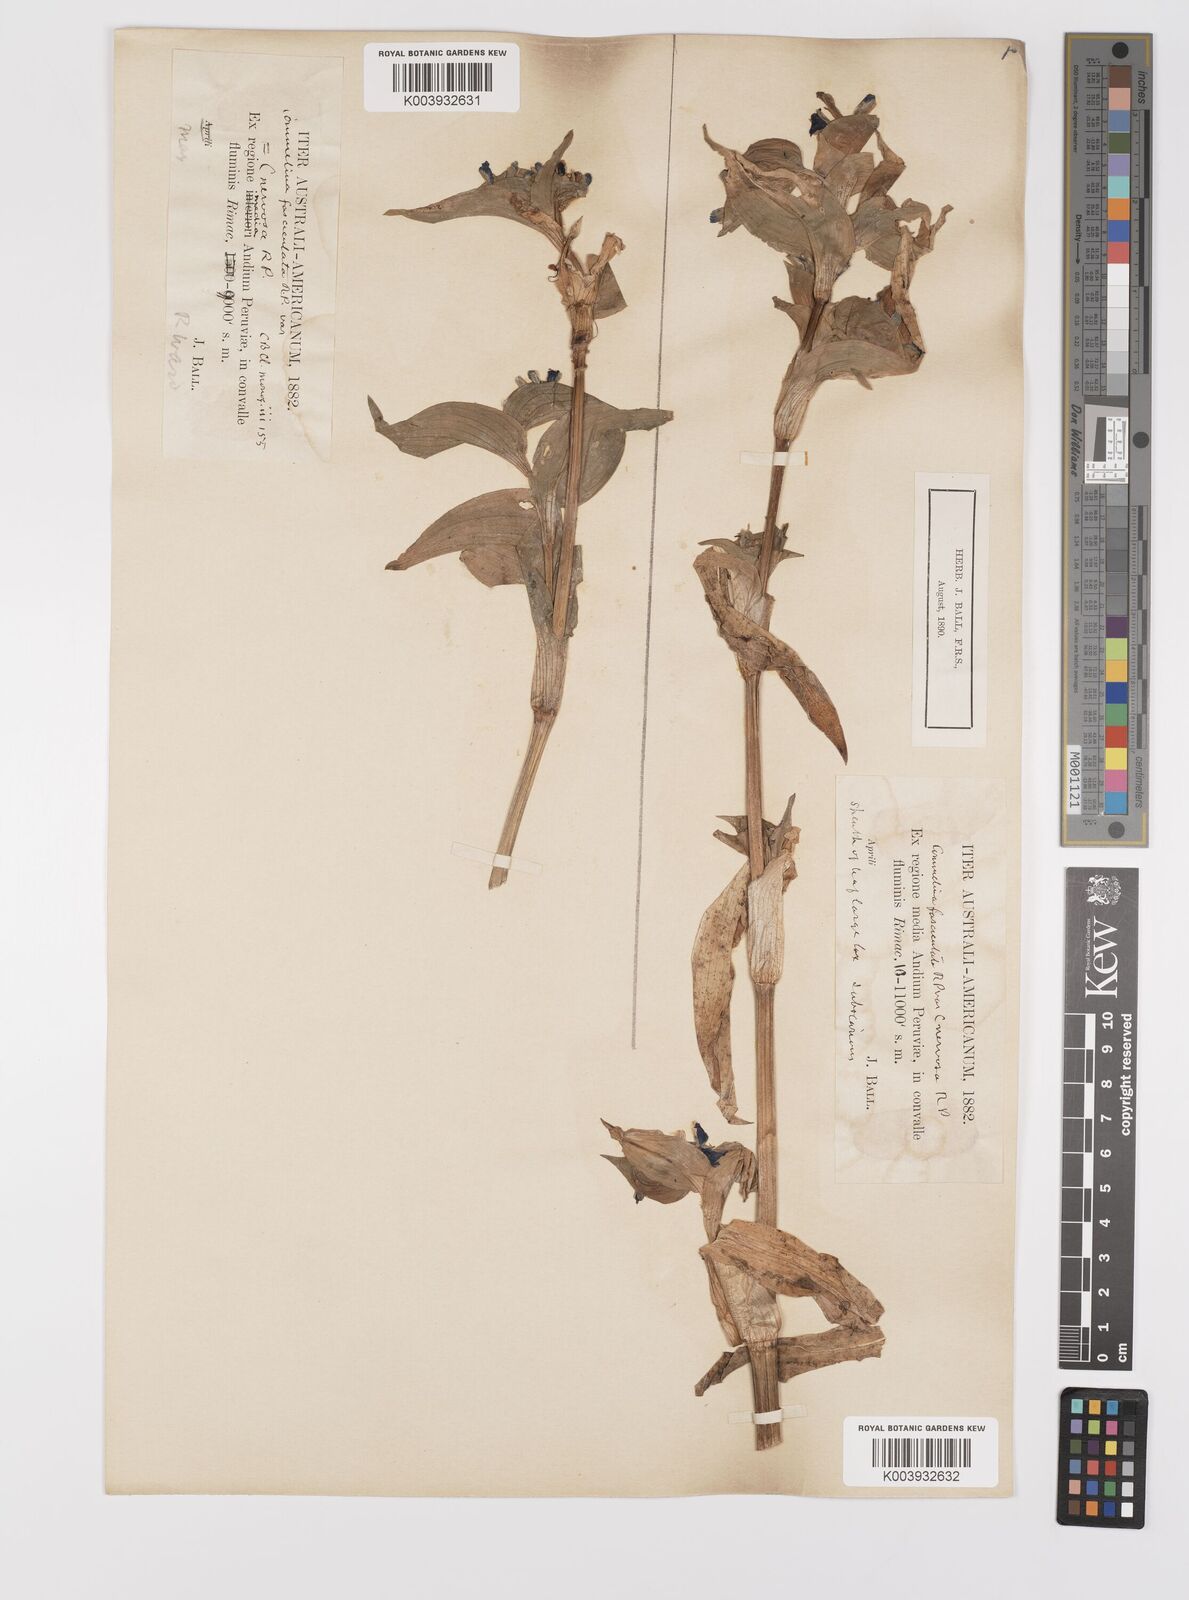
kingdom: Plantae
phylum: Tracheophyta
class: Liliopsida
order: Commelinales
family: Commelinaceae
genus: Commelina
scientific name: Commelina tuberosa
